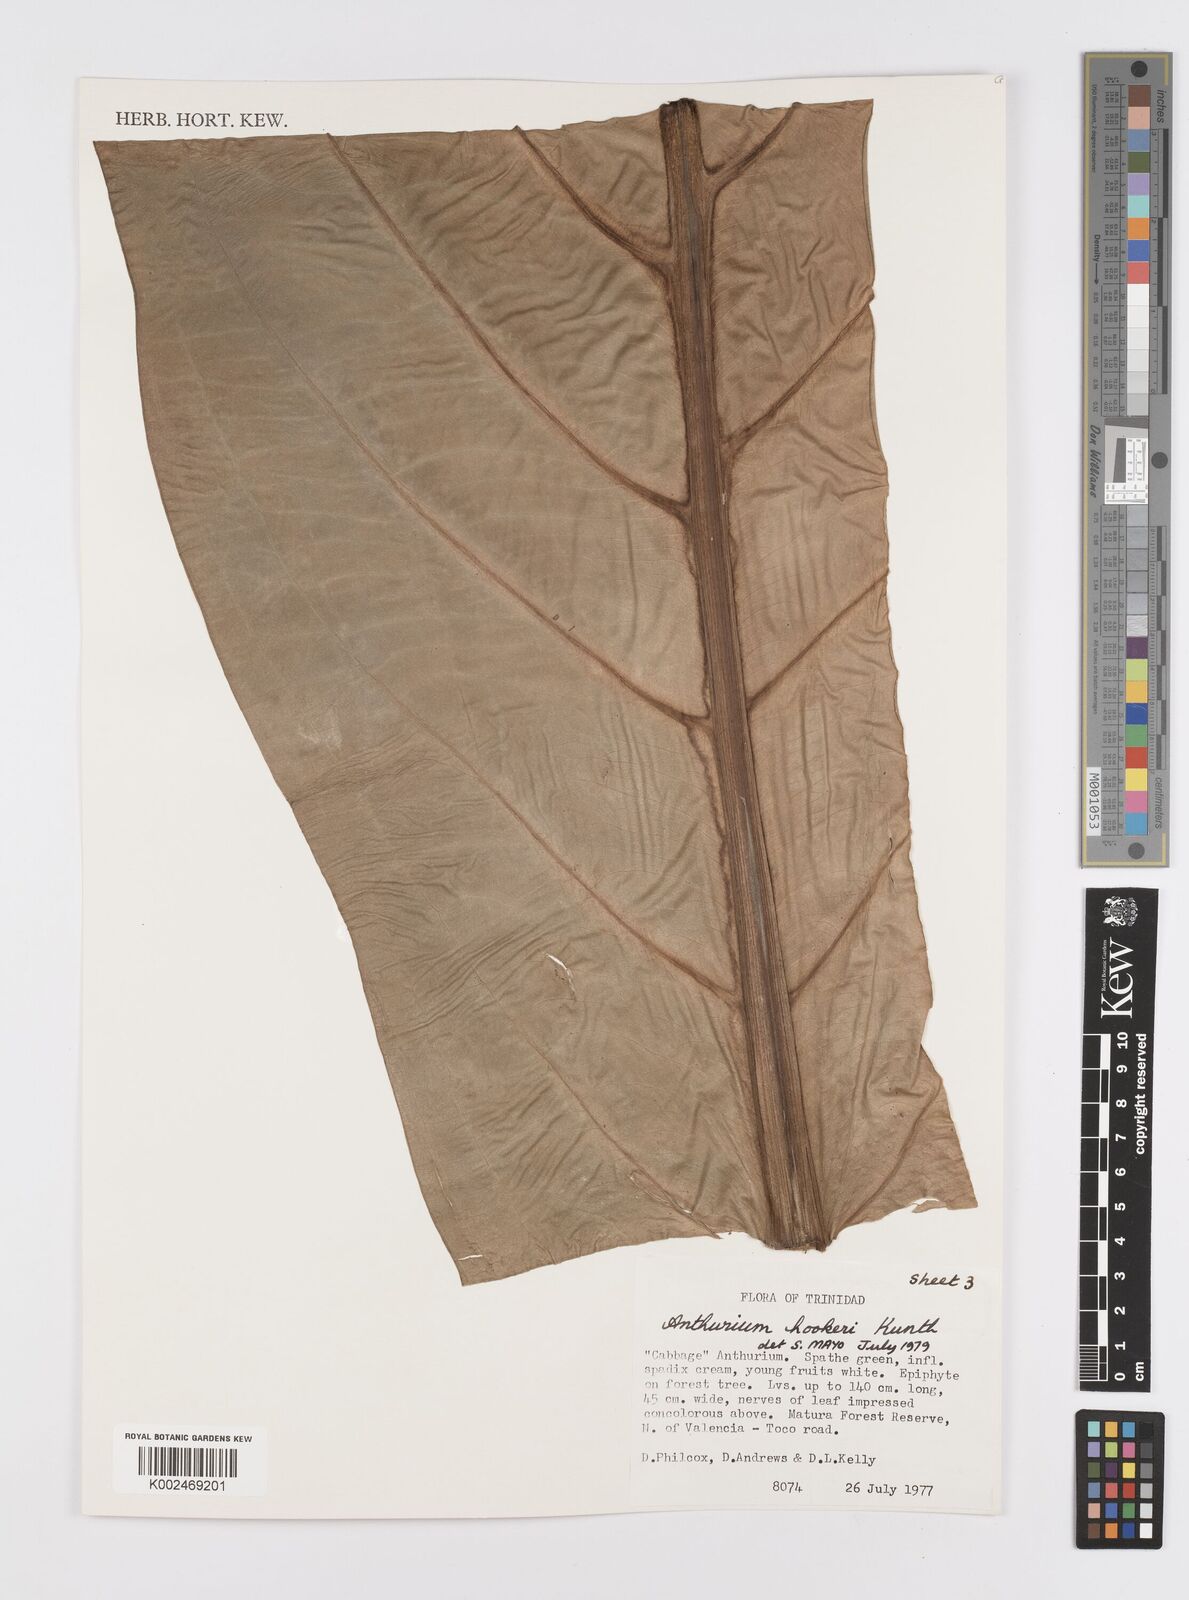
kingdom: Plantae
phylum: Tracheophyta
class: Liliopsida
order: Alismatales
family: Araceae
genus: Anthurium
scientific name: Anthurium hookeri
